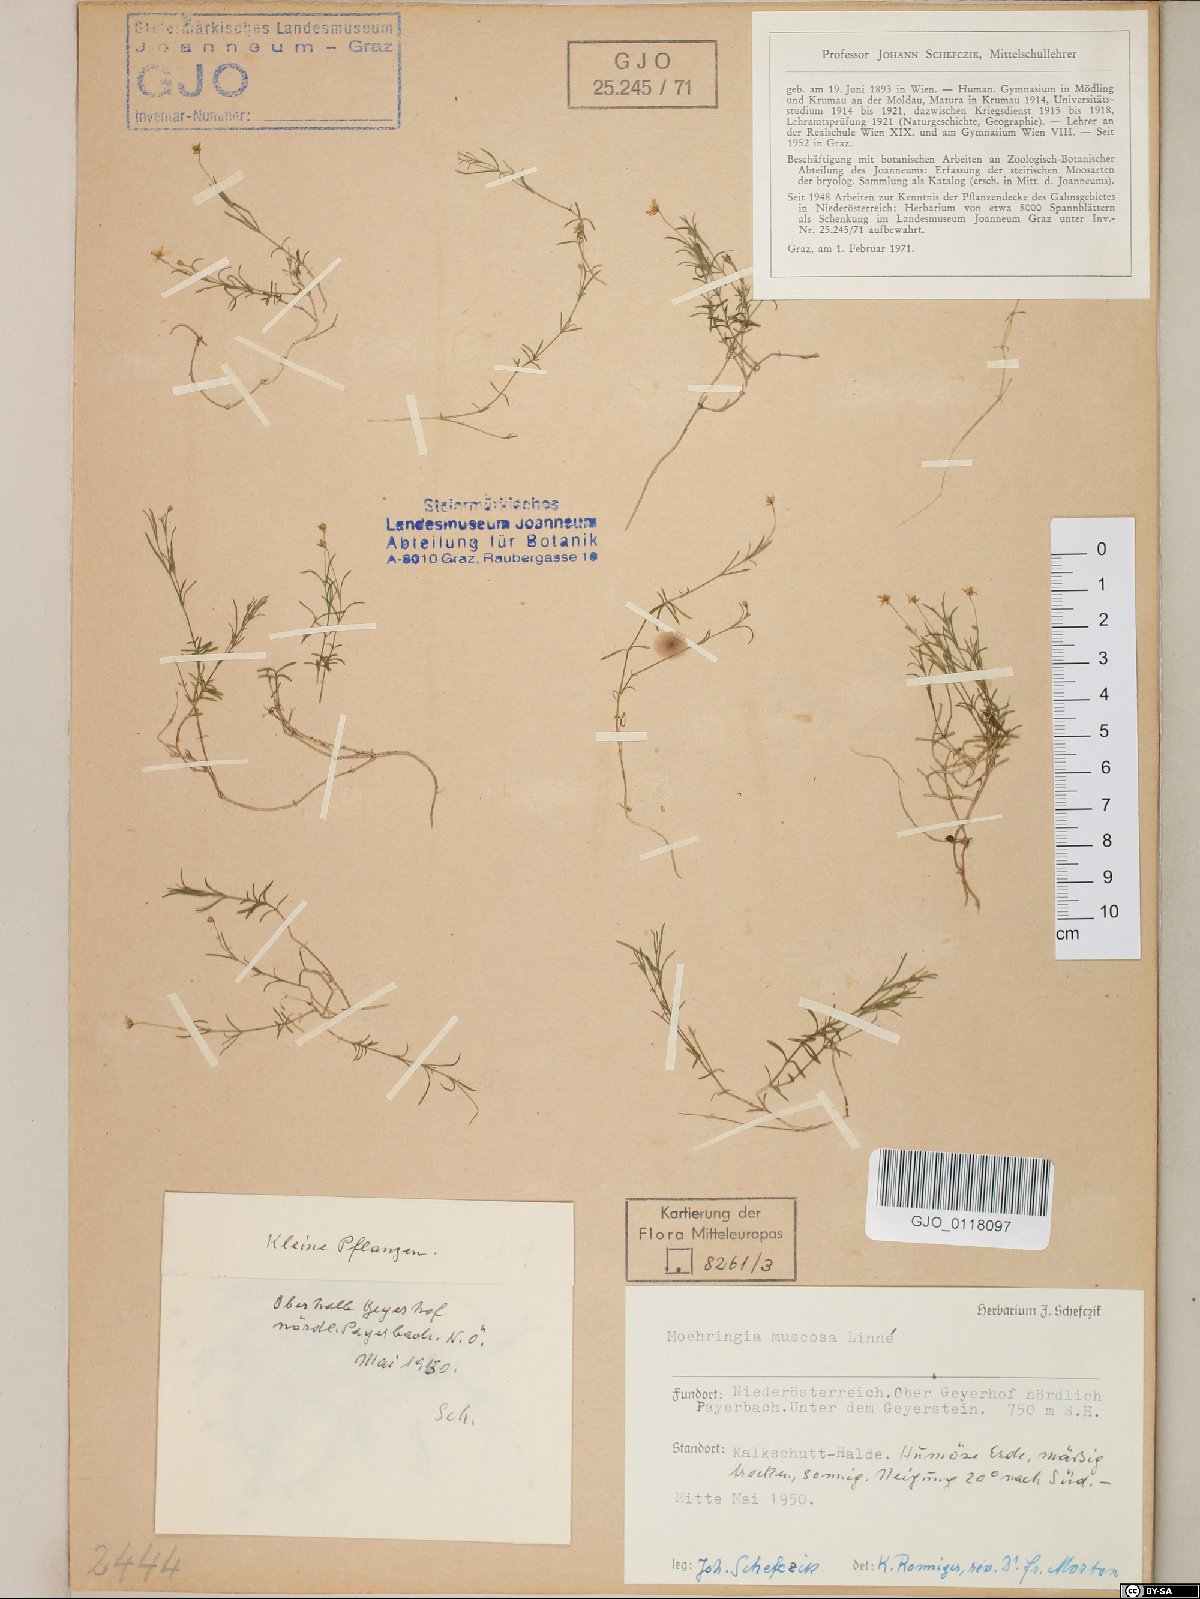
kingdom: Plantae
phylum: Tracheophyta
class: Magnoliopsida
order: Caryophyllales
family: Caryophyllaceae
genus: Moehringia
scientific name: Moehringia muscosa
